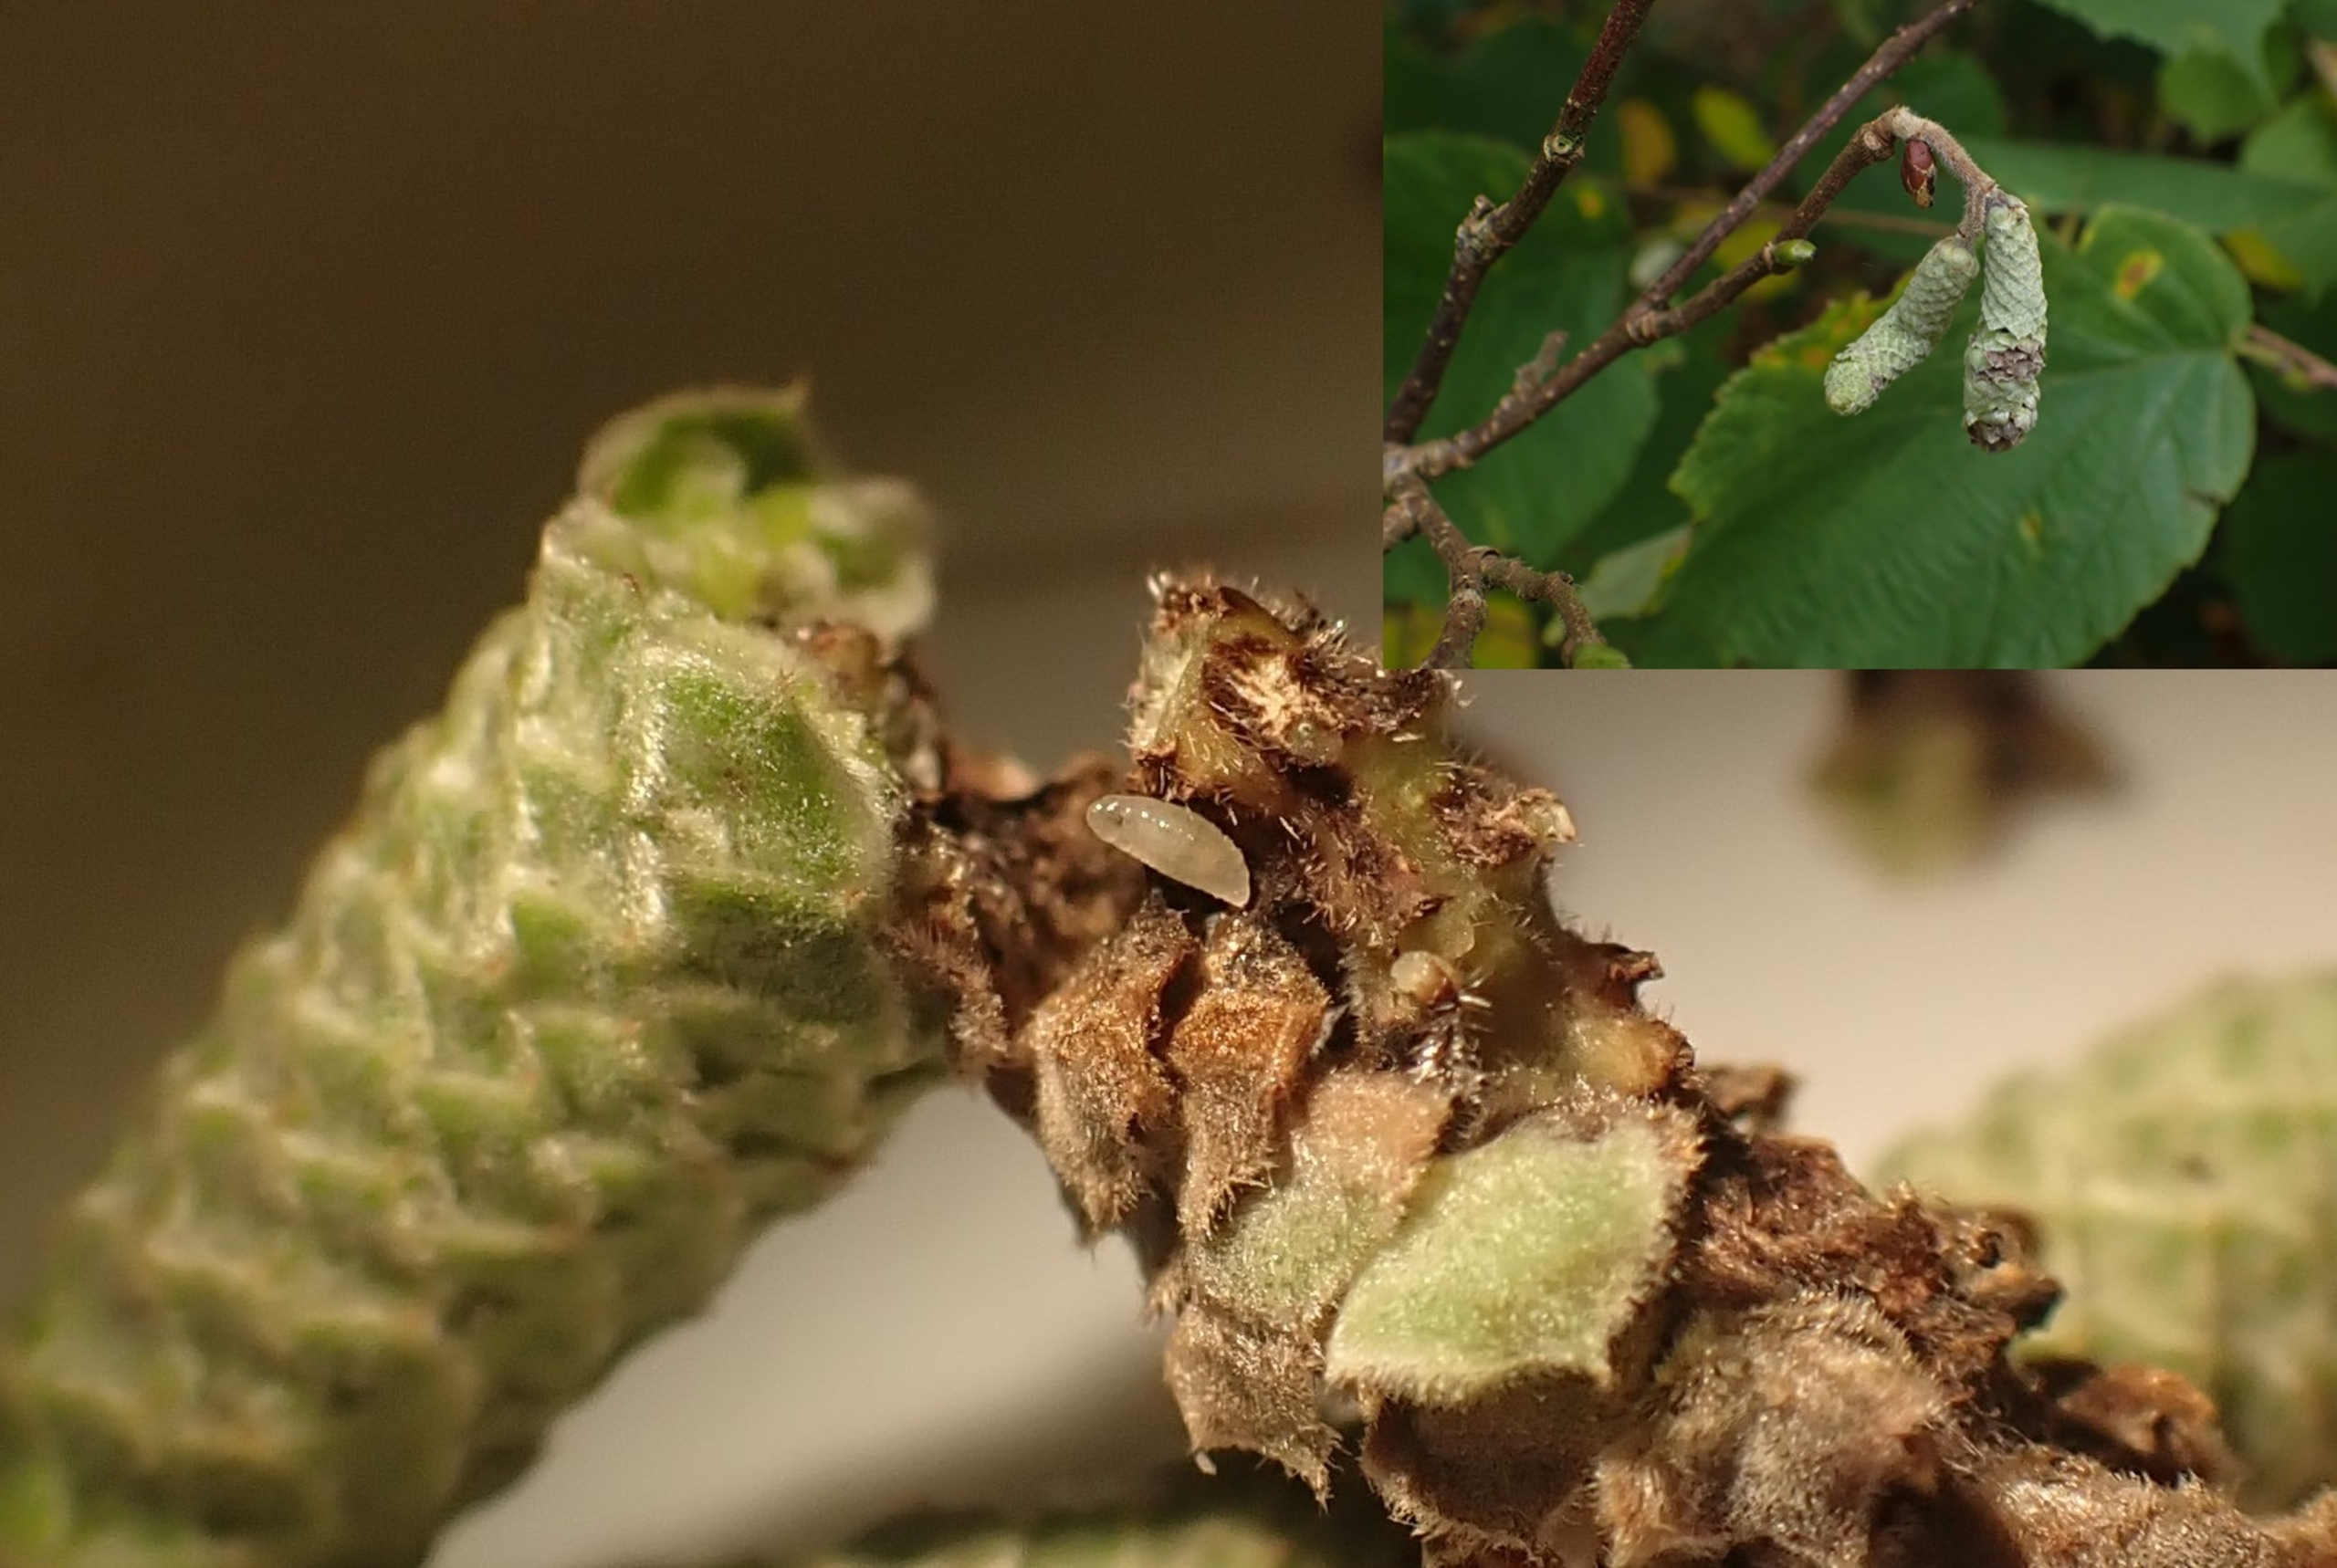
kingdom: Animalia
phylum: Arthropoda
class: Insecta
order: Diptera
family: Cecidomyiidae
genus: Contarinia
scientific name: Contarinia coryli
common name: Hasselraklegalmyg
